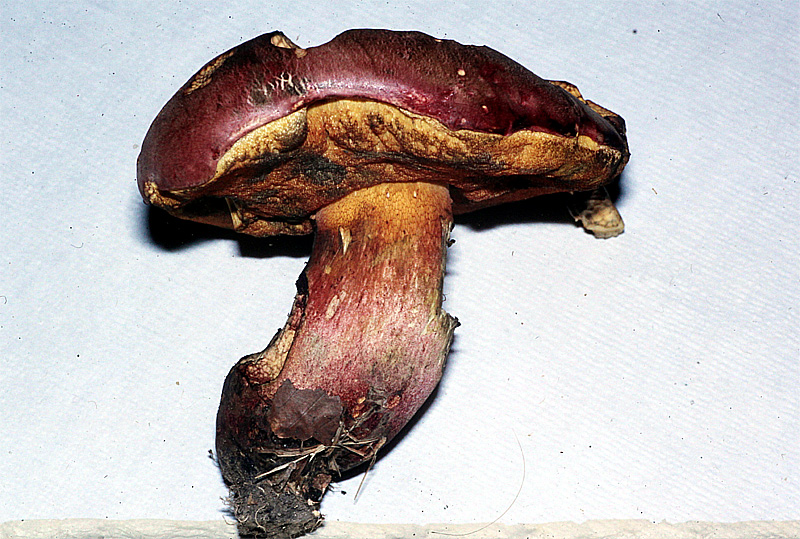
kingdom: Fungi
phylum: Basidiomycota
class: Agaricomycetes
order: Boletales
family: Boletaceae
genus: Rubroboletus
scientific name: Rubroboletus legaliae
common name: djævle-rørhat
